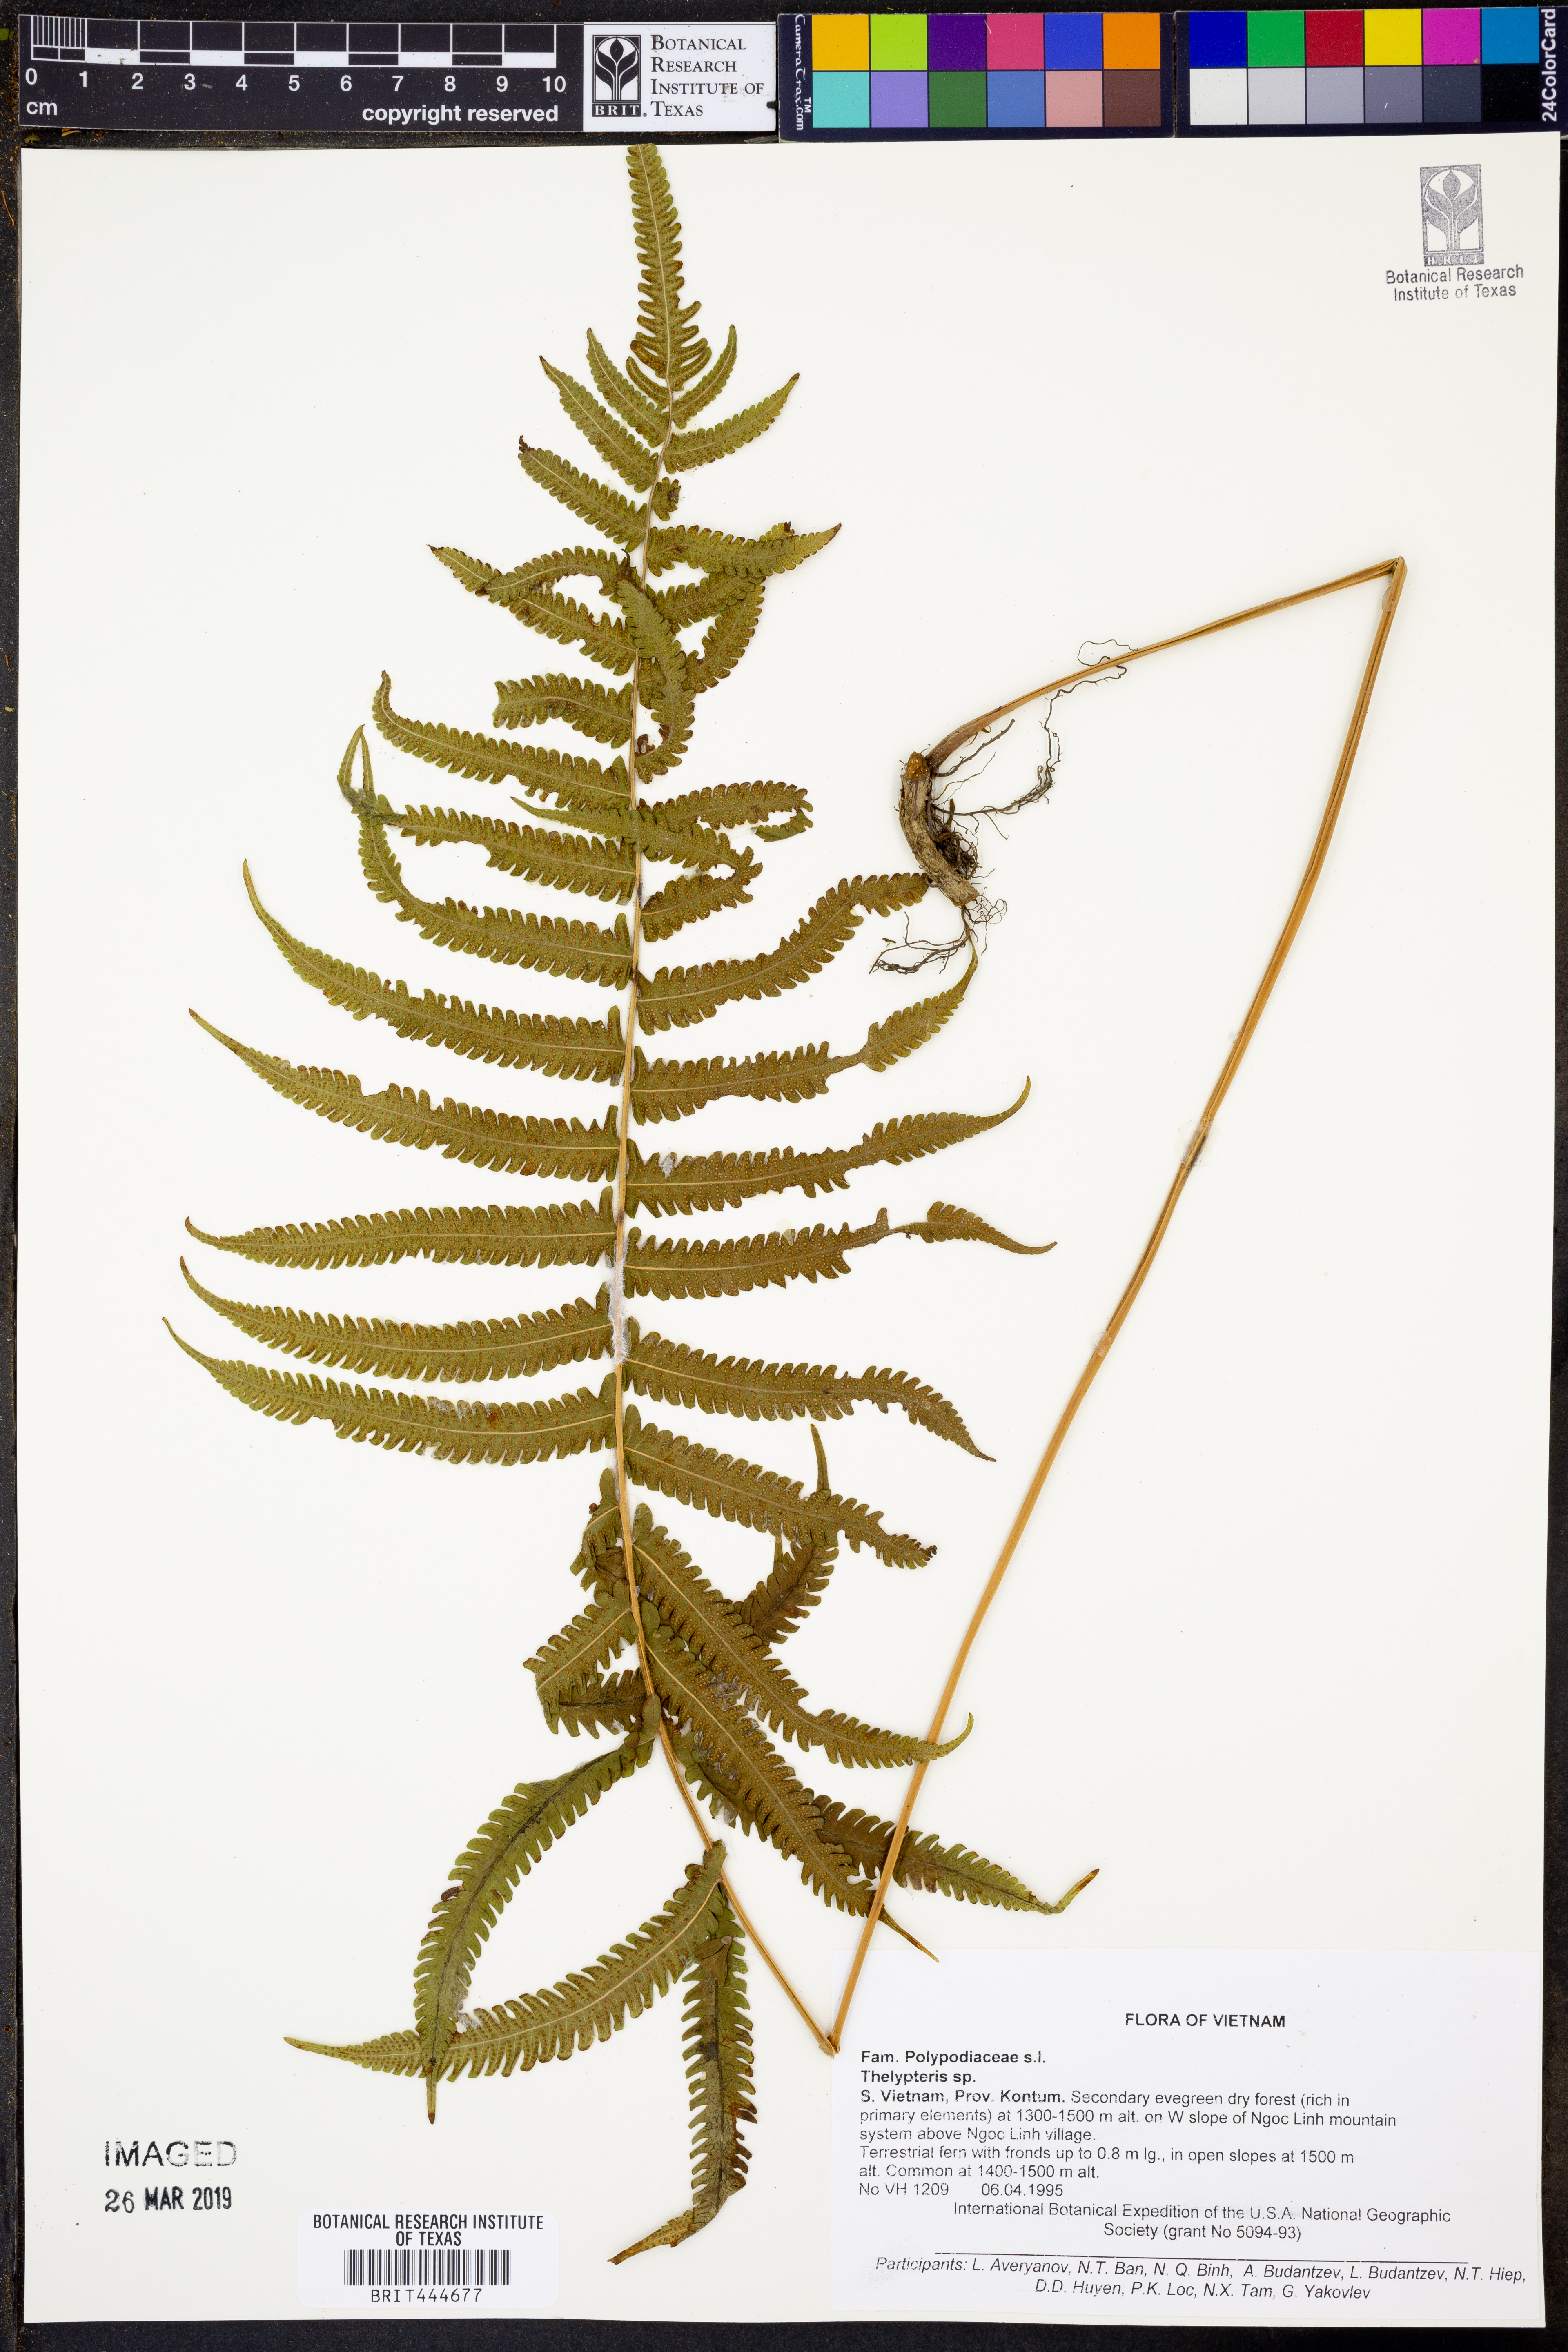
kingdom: Plantae
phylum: Tracheophyta
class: Polypodiopsida
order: Polypodiales
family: Thelypteridaceae
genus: Thelypteris
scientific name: Thelypteris
